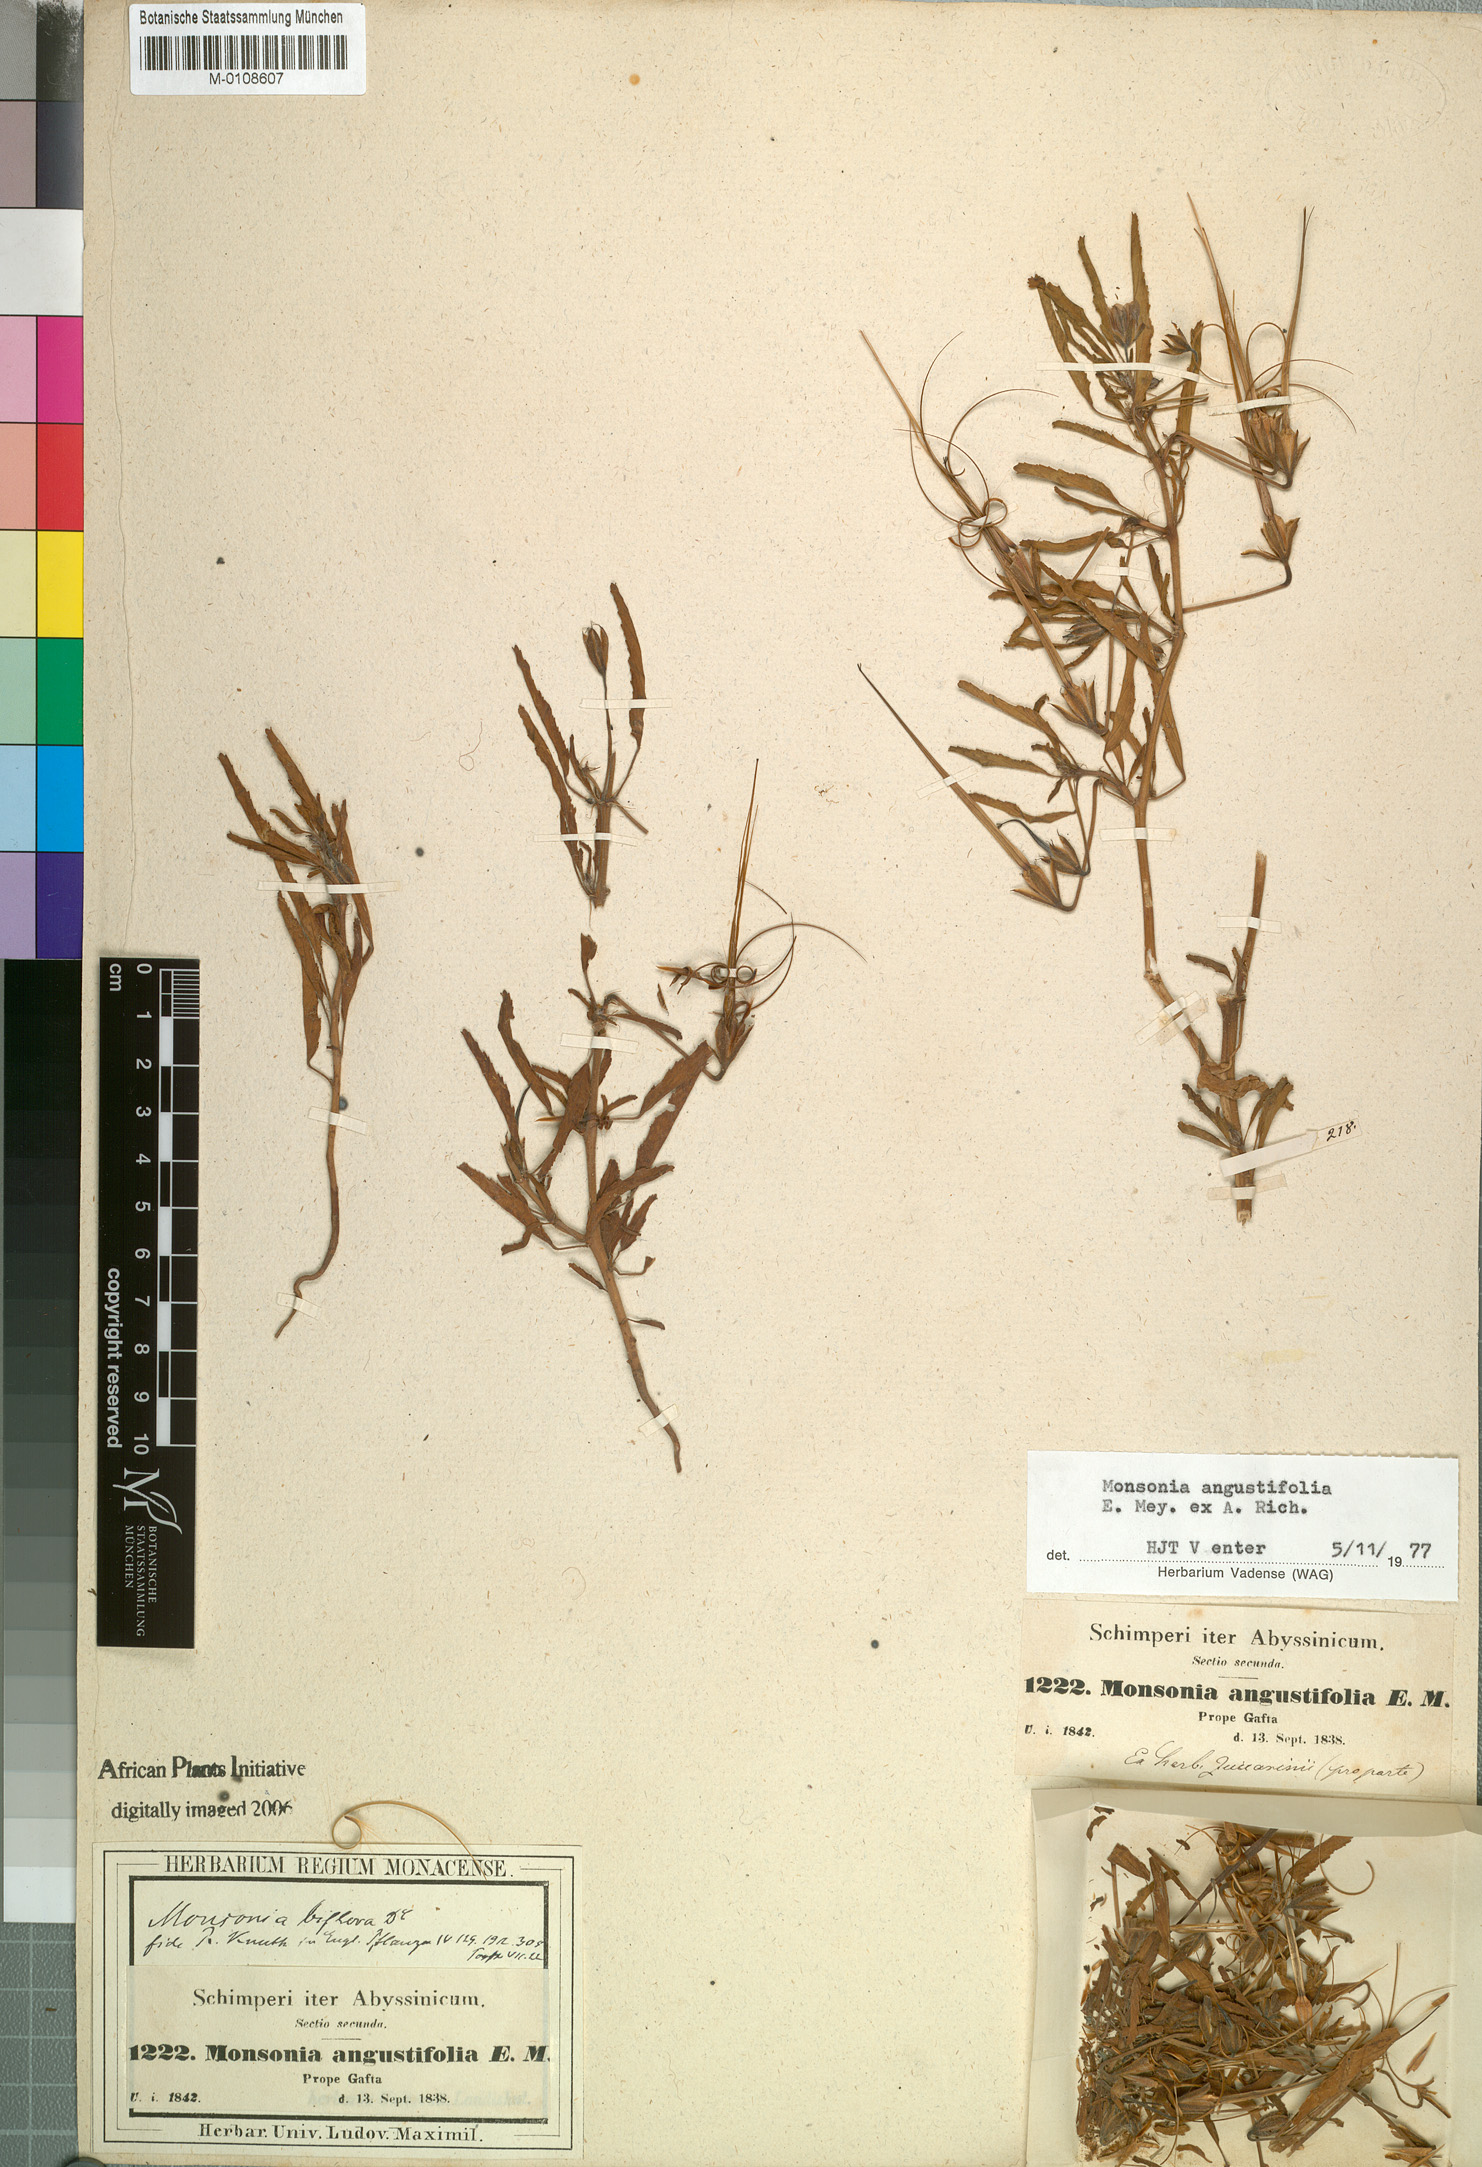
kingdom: Plantae
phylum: Tracheophyta
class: Magnoliopsida
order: Geraniales
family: Geraniaceae
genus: Monsonia
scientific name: Monsonia angustifolia
